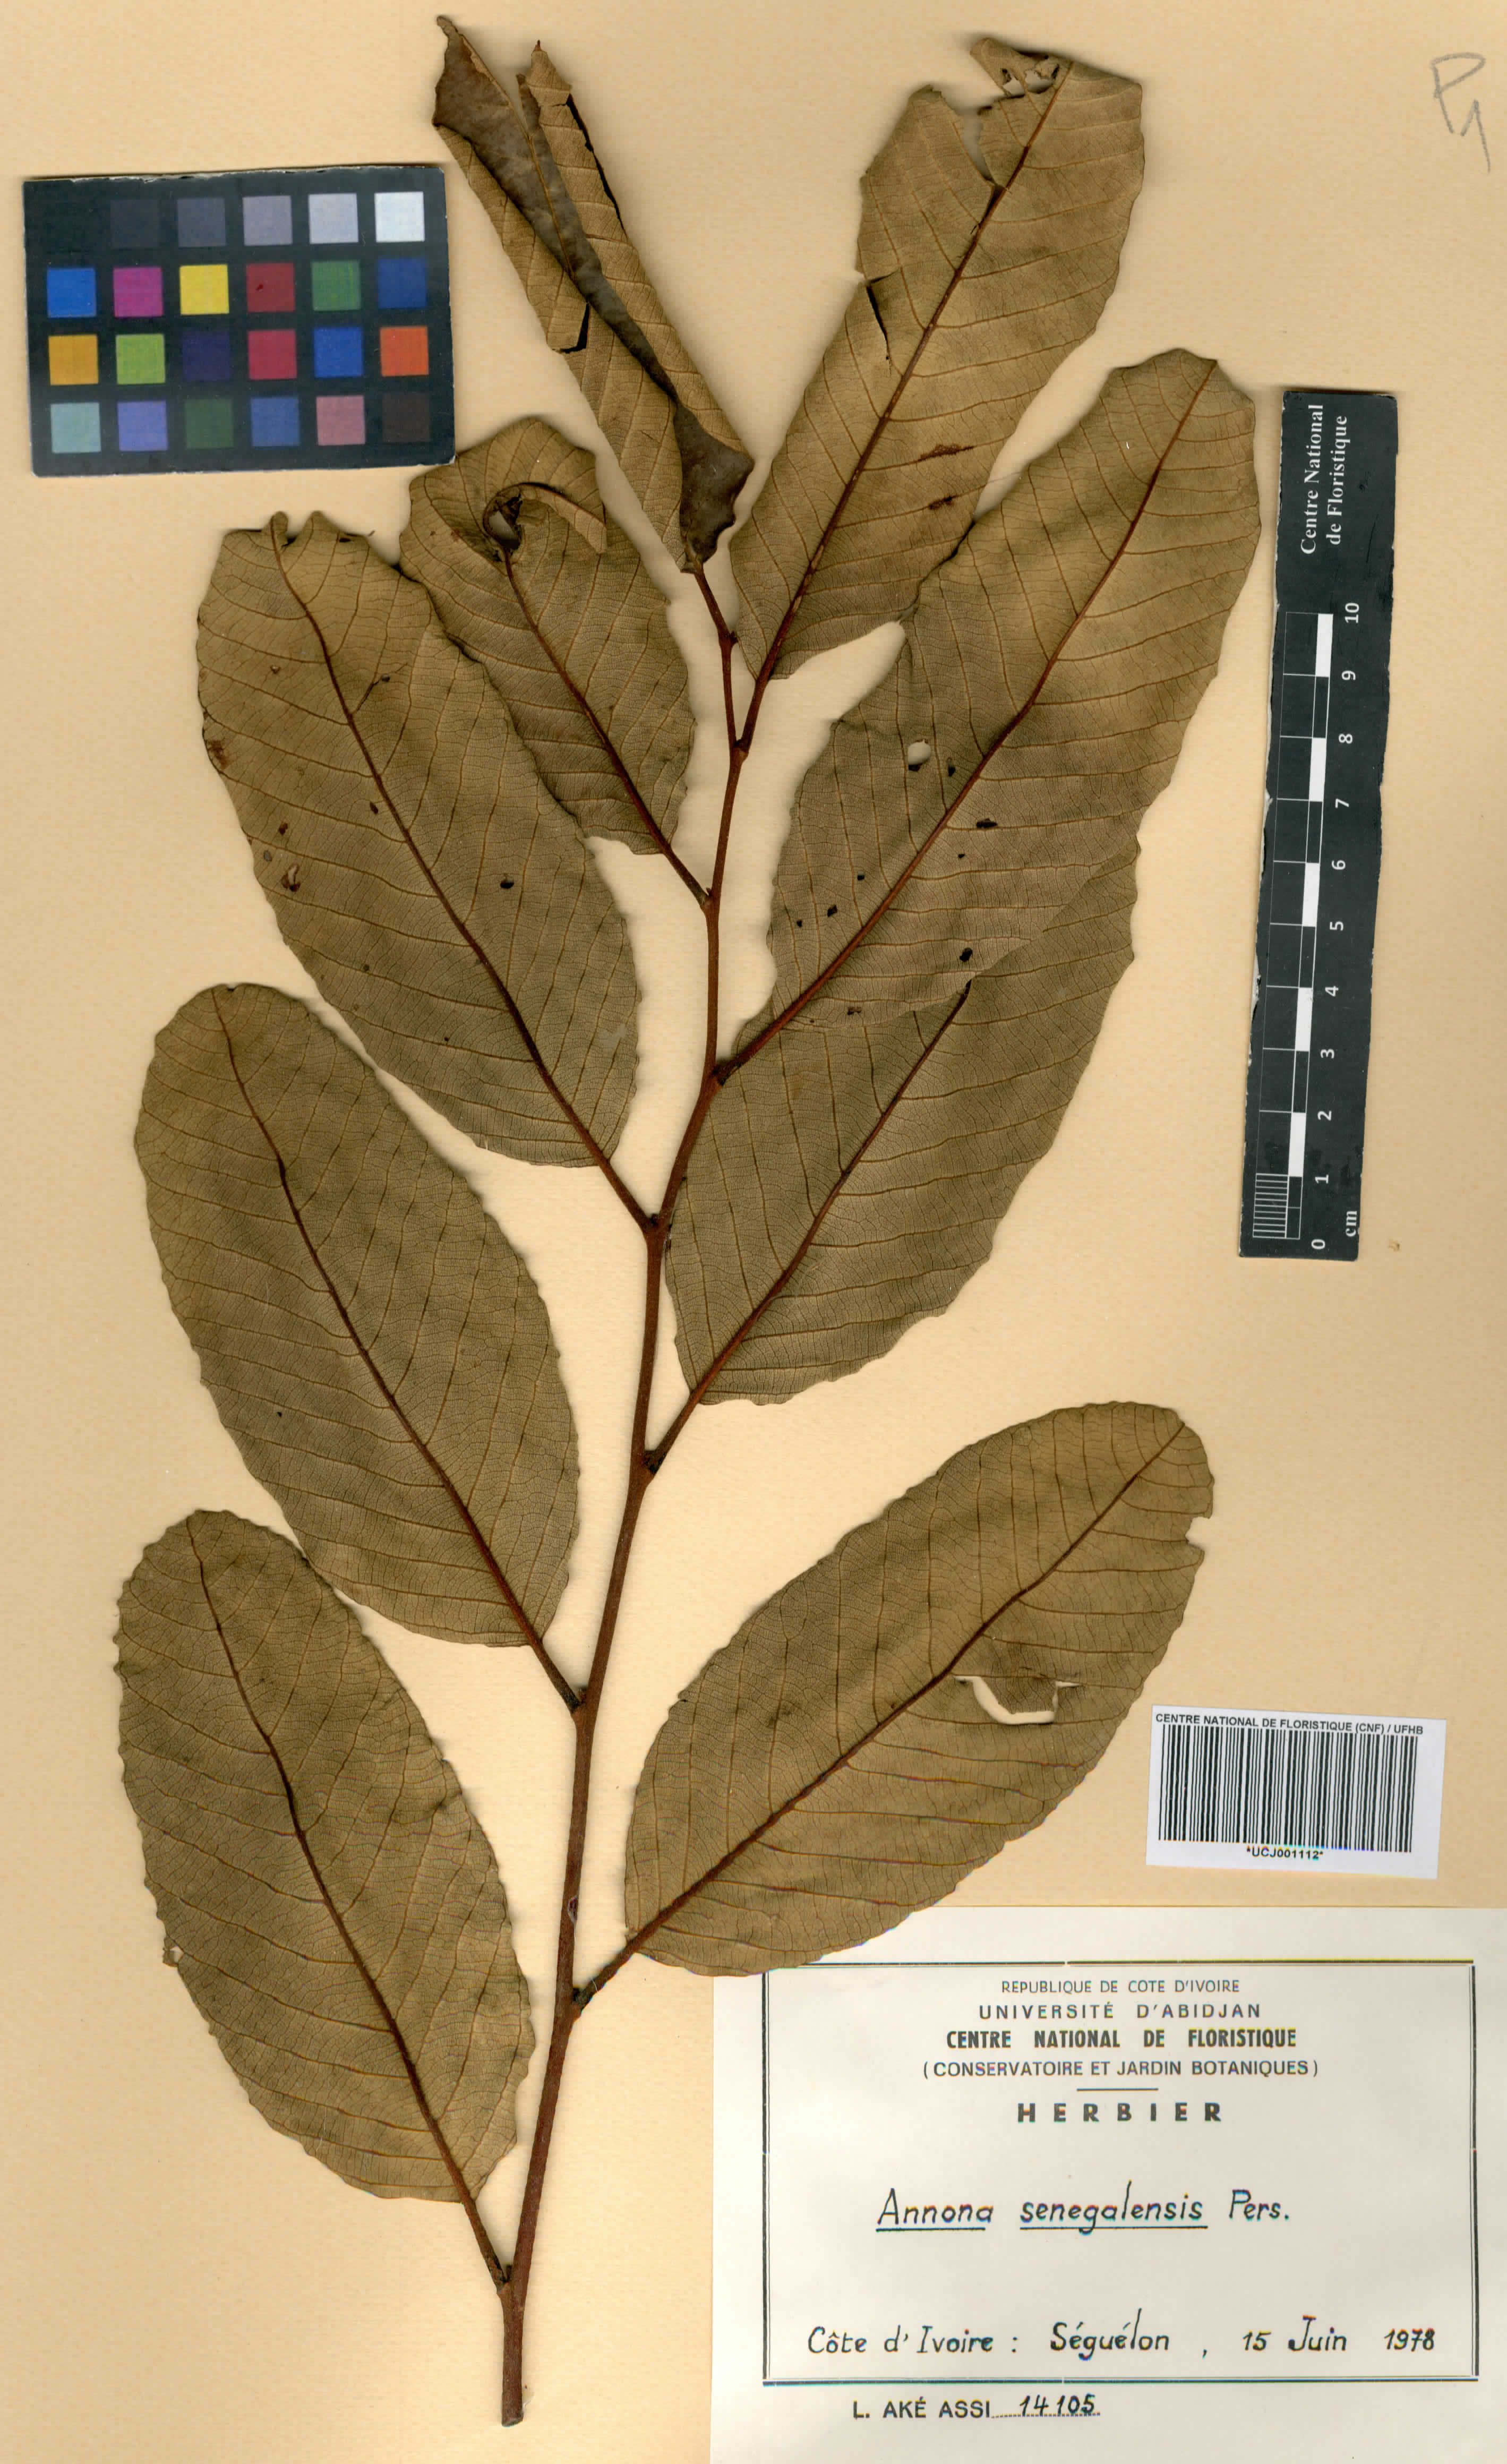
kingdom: Plantae
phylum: Tracheophyta
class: Magnoliopsida
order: Magnoliales
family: Annonaceae
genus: Annona
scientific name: Annona senegalensis
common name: Wild custard-apple
